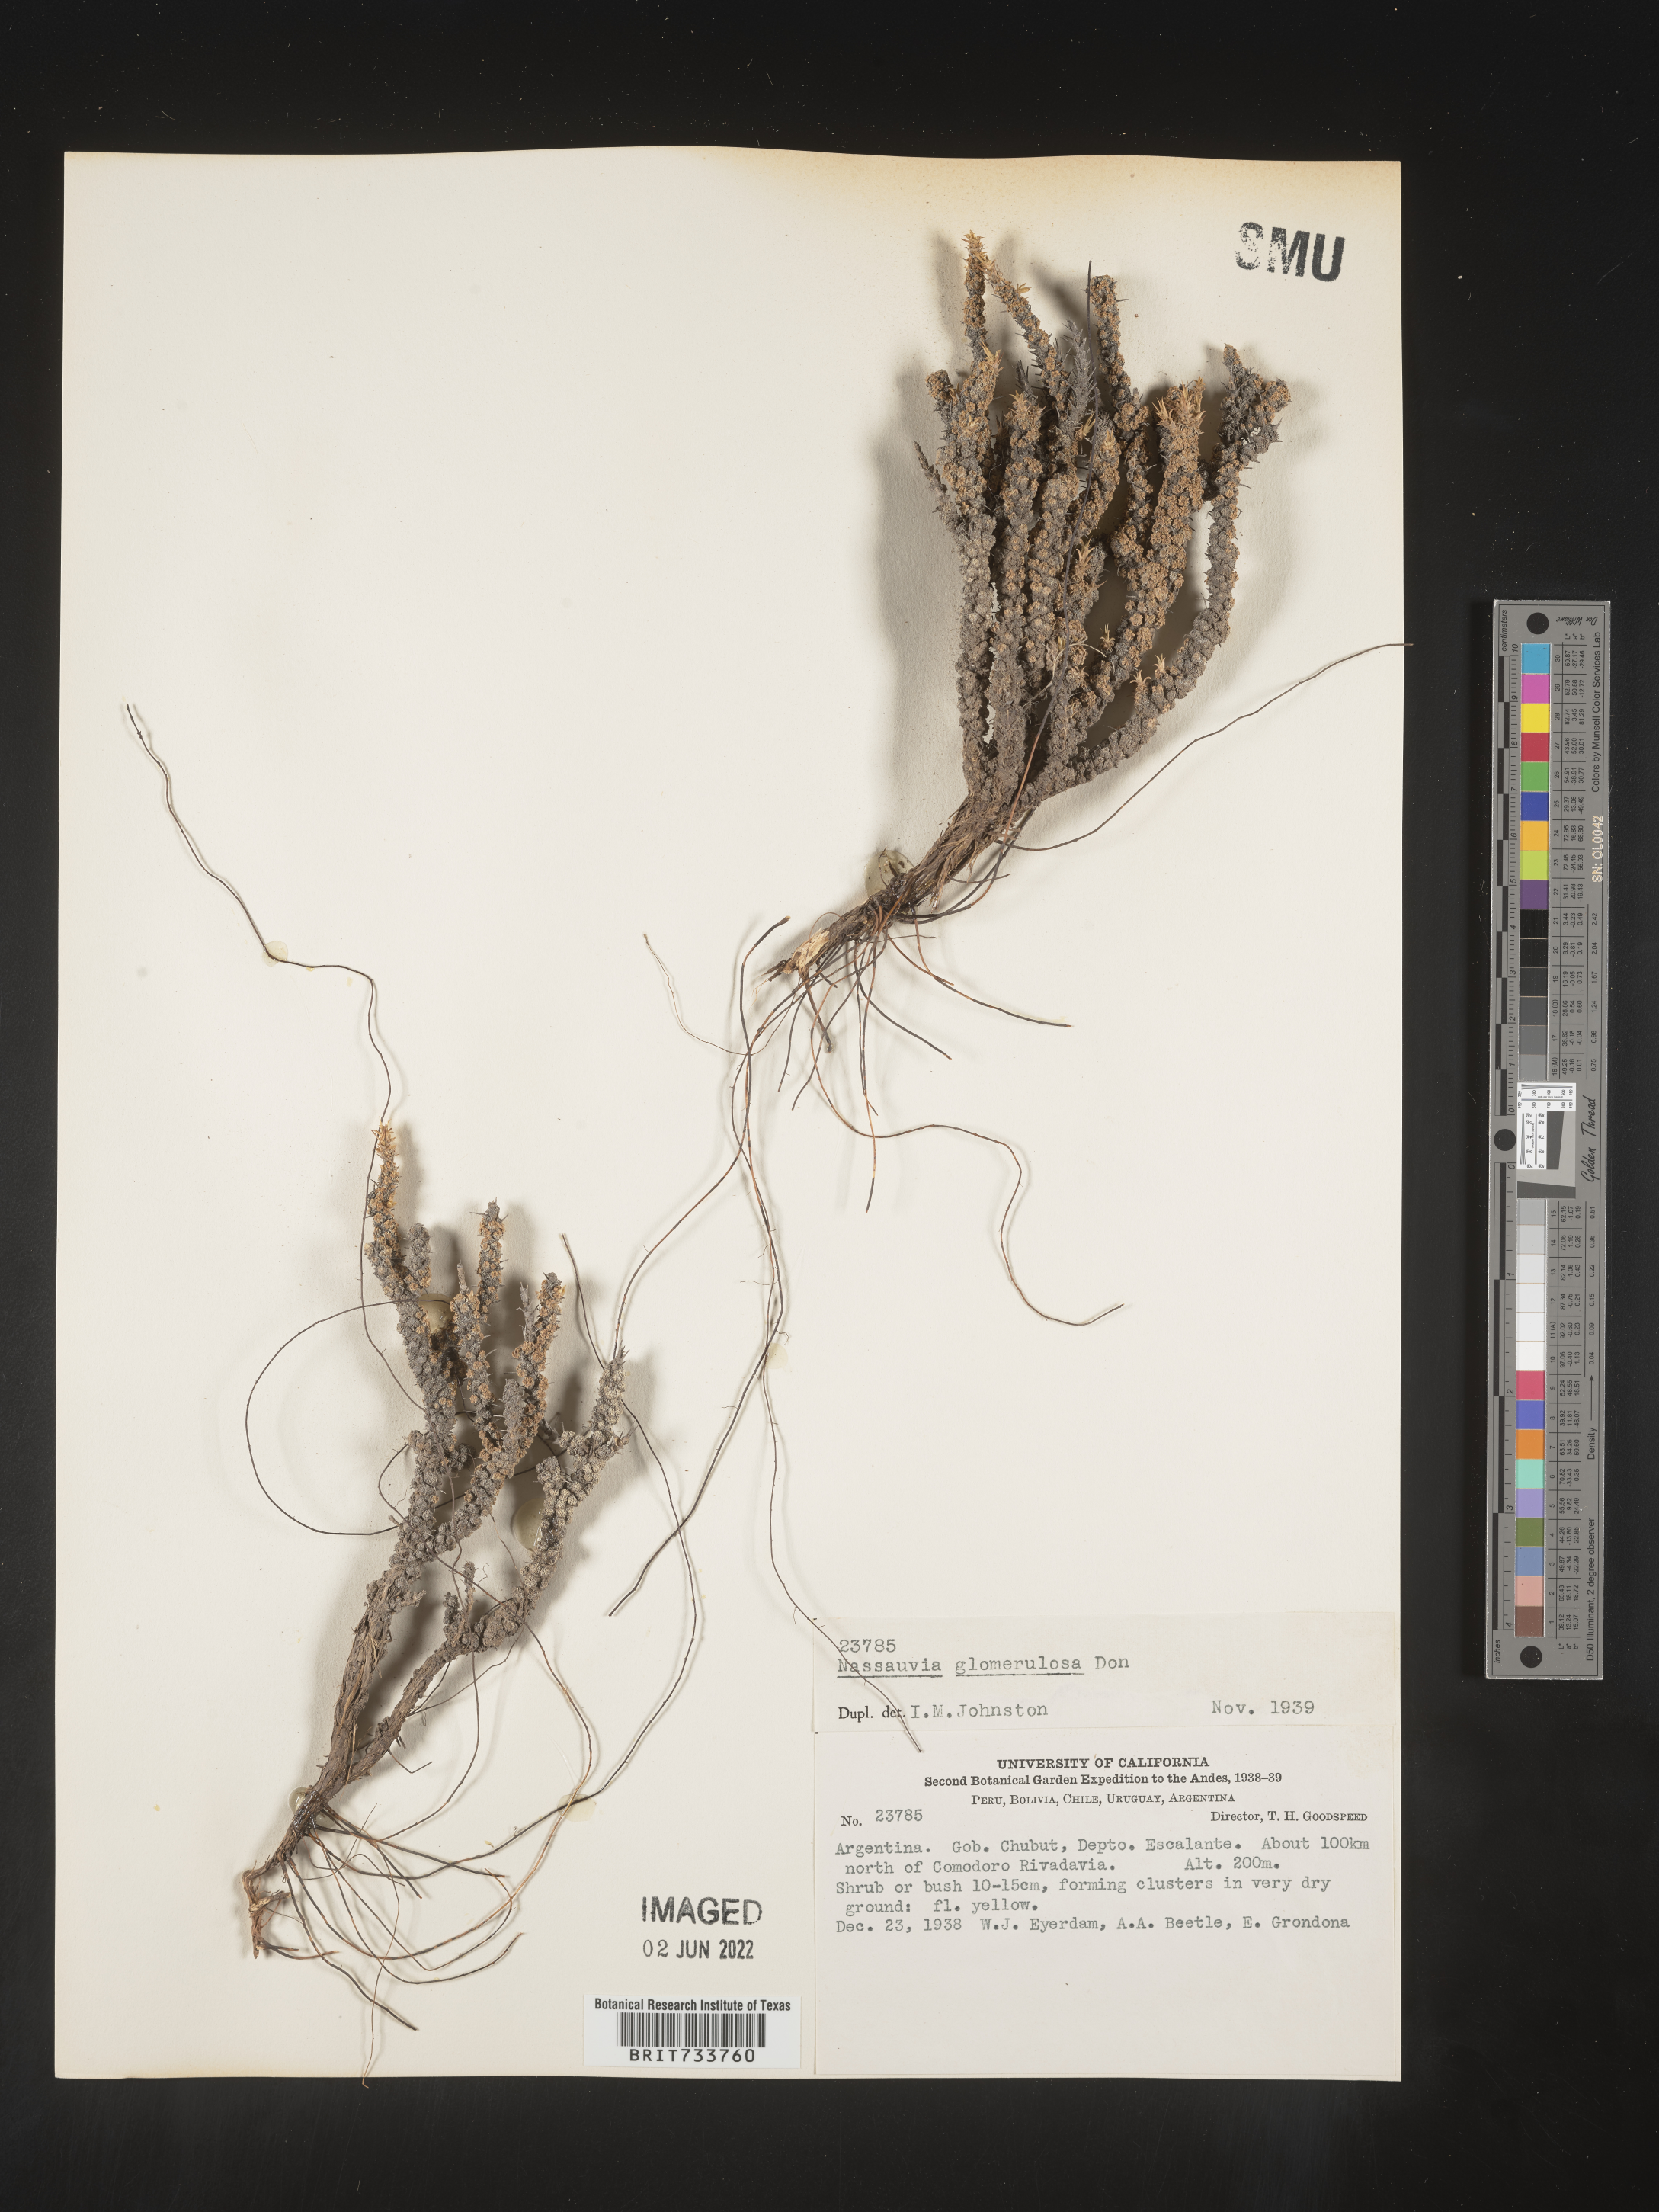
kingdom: Plantae
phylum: Tracheophyta
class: Magnoliopsida
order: Asterales
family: Asteraceae
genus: Nassauvia
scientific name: Nassauvia
